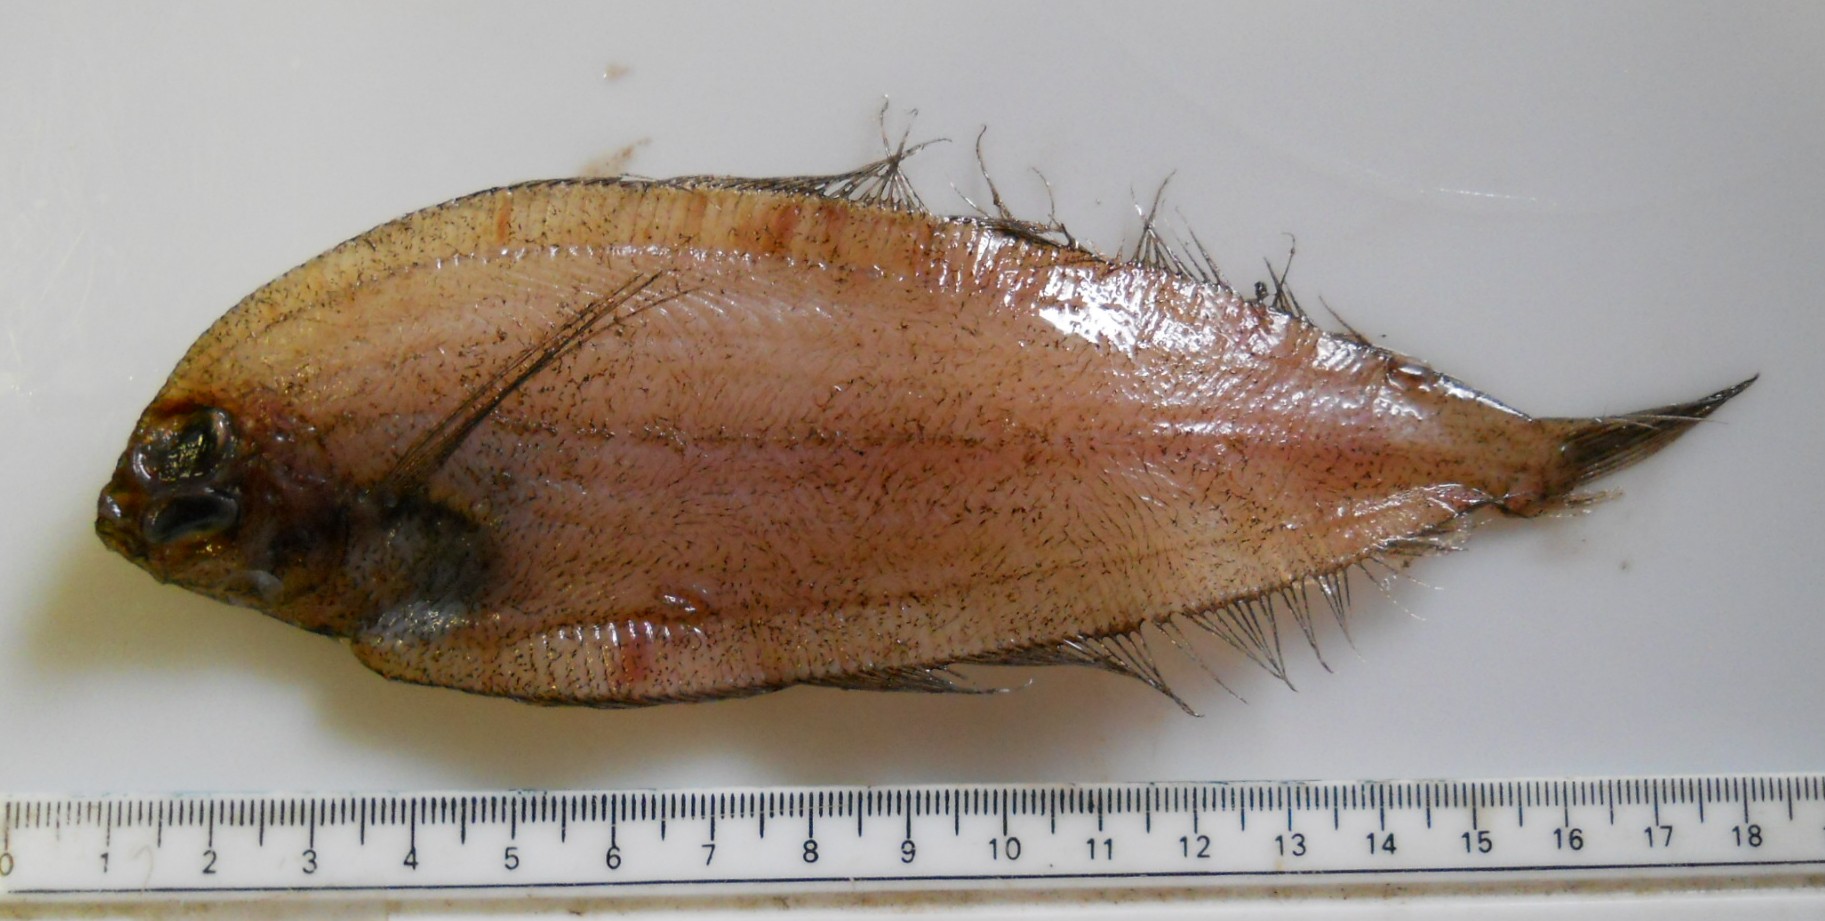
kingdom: Animalia
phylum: Chordata
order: Pleuronectiformes
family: Bothidae
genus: Laeops
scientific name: Laeops pectoralis
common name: Longarm flounder
